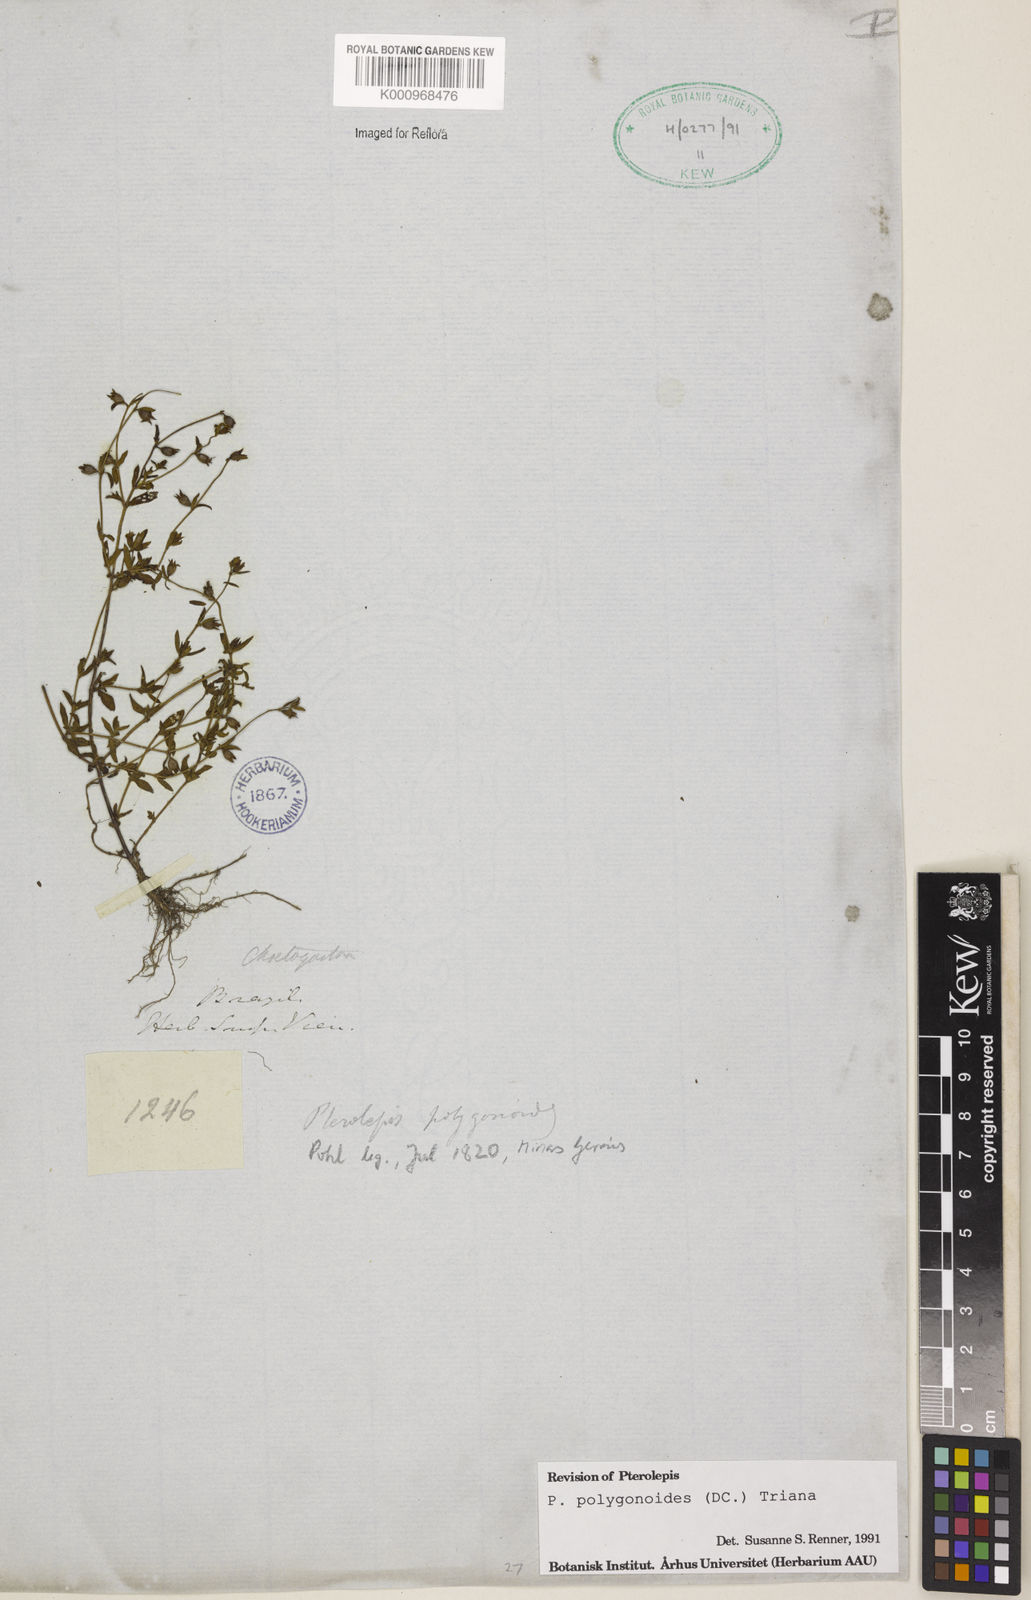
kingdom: Plantae
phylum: Tracheophyta
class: Magnoliopsida
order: Myrtales
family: Melastomataceae
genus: Pterolepis
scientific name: Pterolepis polygonoides
